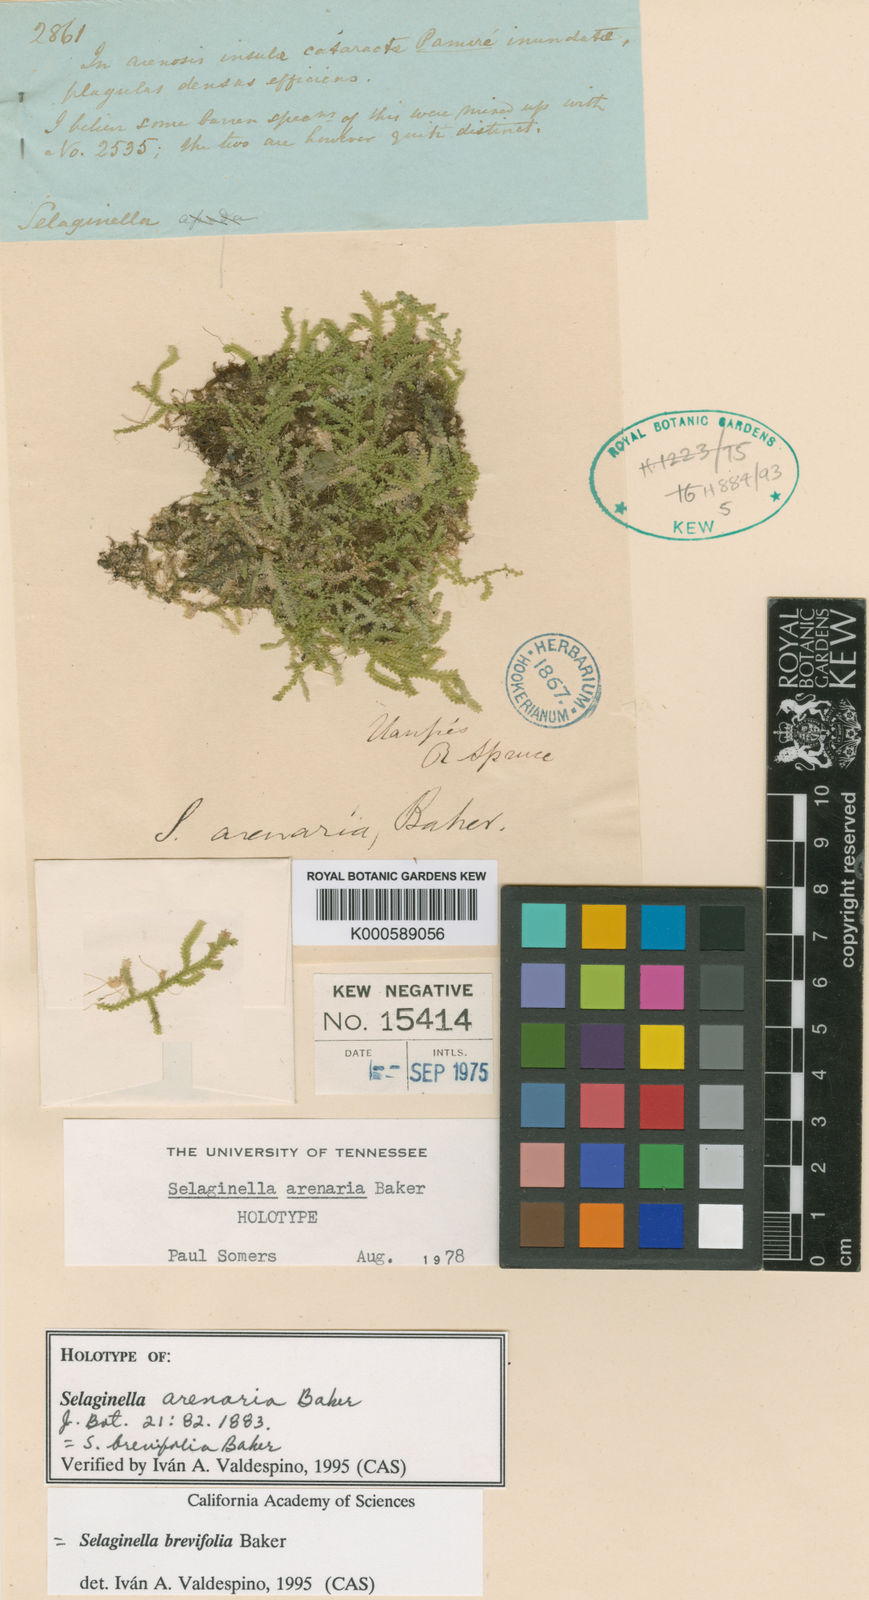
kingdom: Plantae
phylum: Tracheophyta
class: Lycopodiopsida
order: Selaginellales
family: Selaginellaceae
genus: Selaginella
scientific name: Selaginella brevifolia
